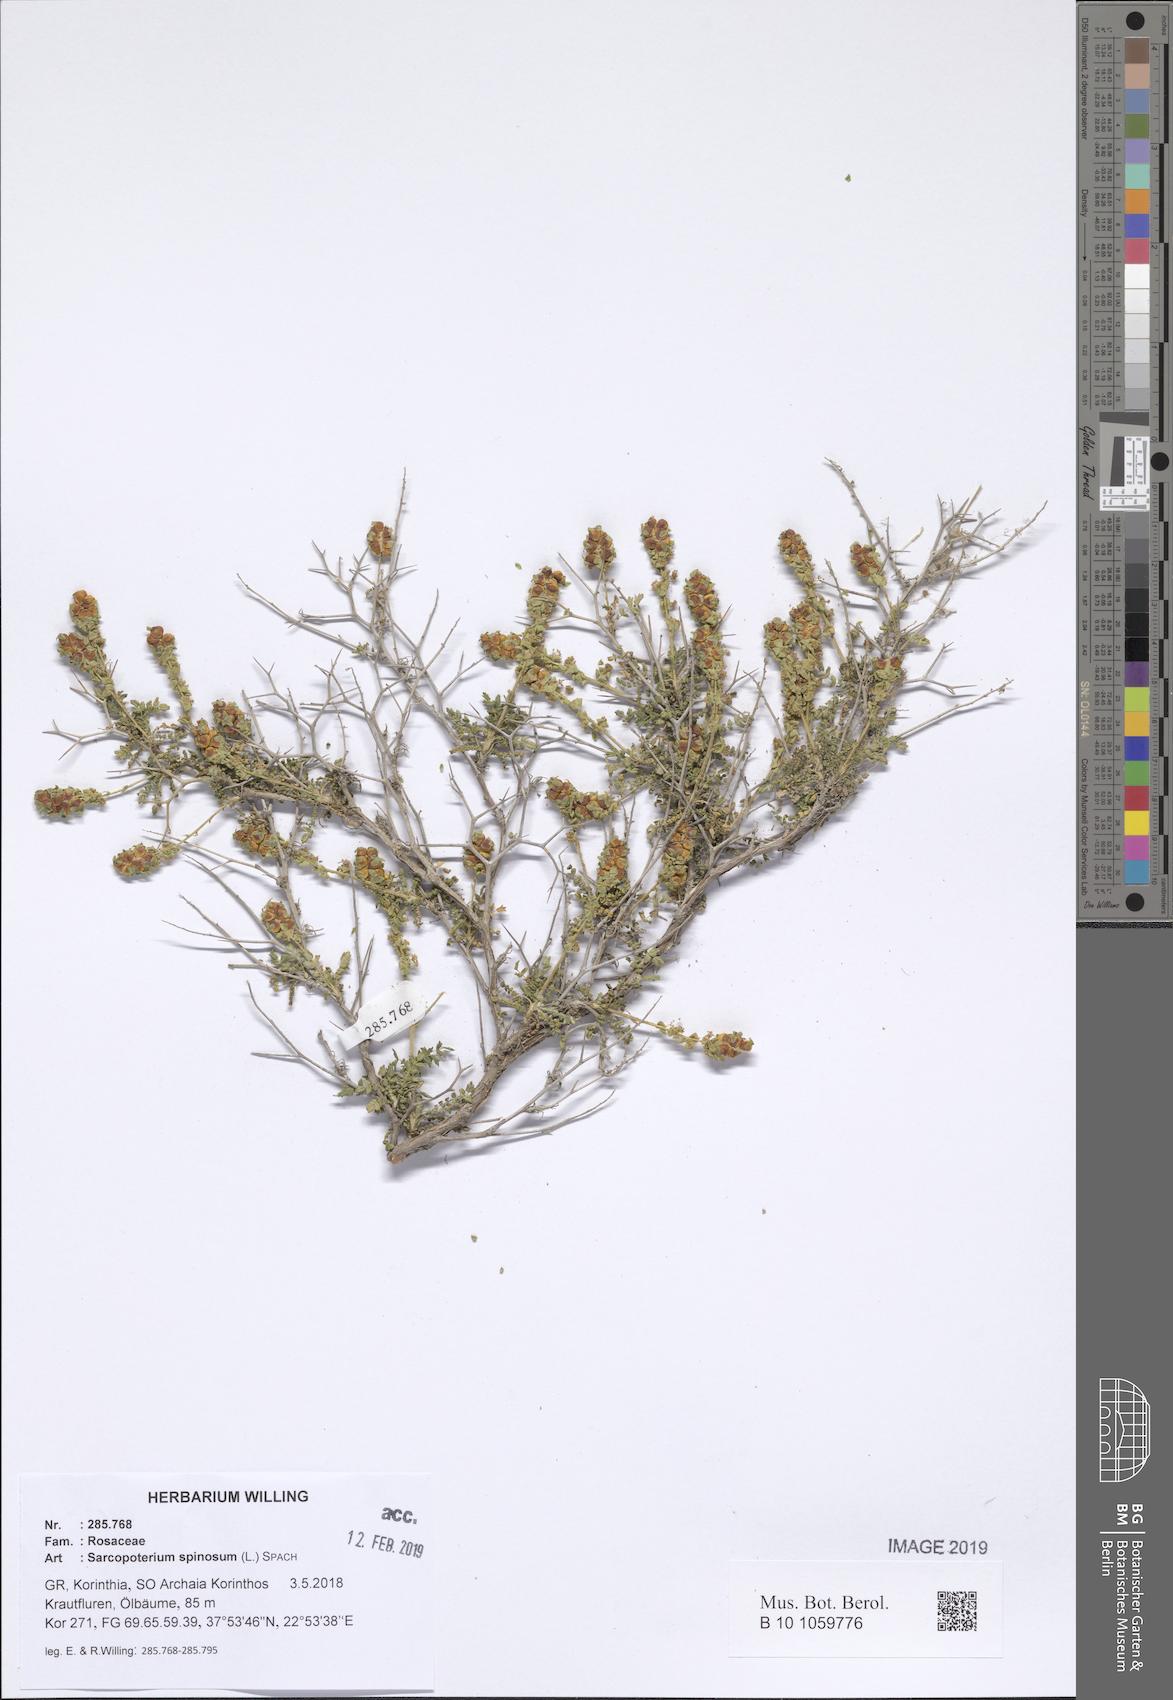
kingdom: Plantae
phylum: Tracheophyta
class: Magnoliopsida
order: Rosales
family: Rosaceae
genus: Sarcopoterium
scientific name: Sarcopoterium spinosum
